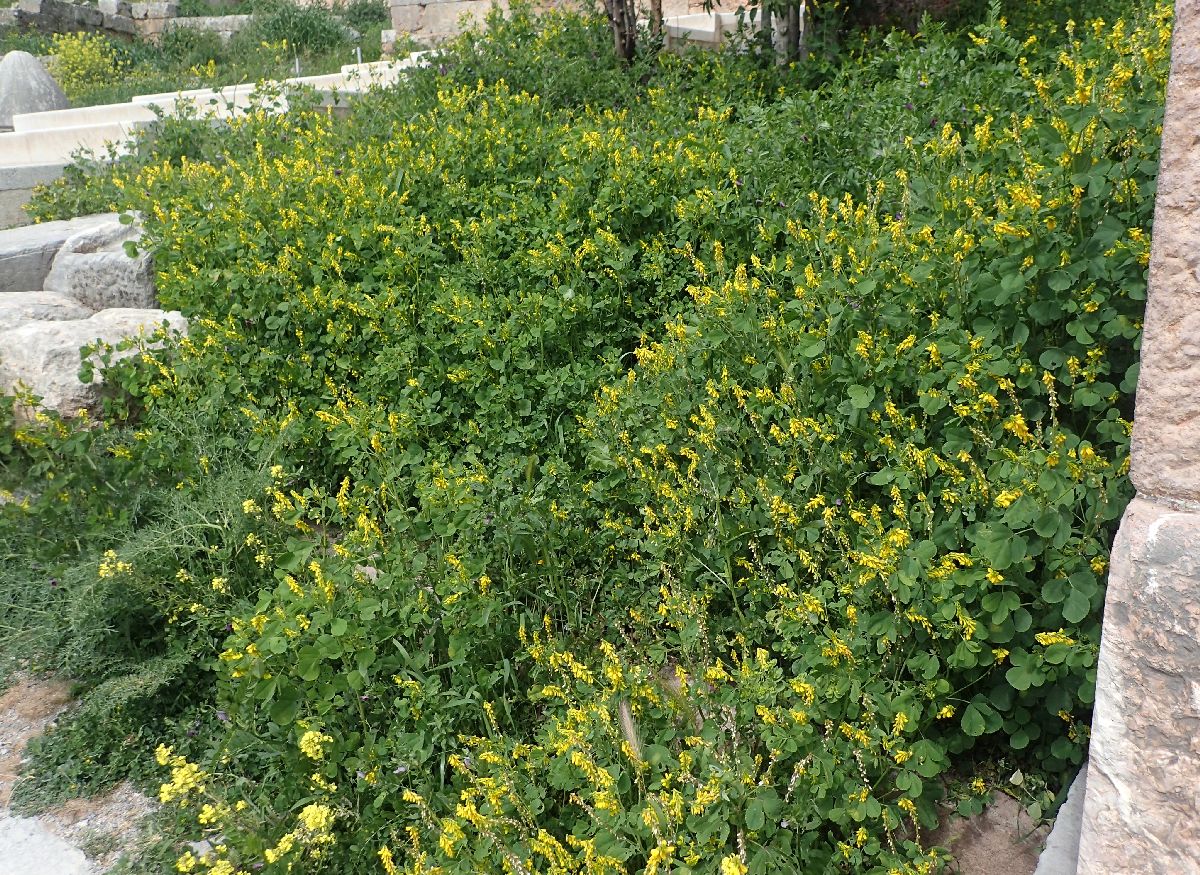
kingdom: Plantae
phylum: Tracheophyta
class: Magnoliopsida
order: Fabales
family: Fabaceae
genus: Melilotus
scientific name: Melilotus italicus
